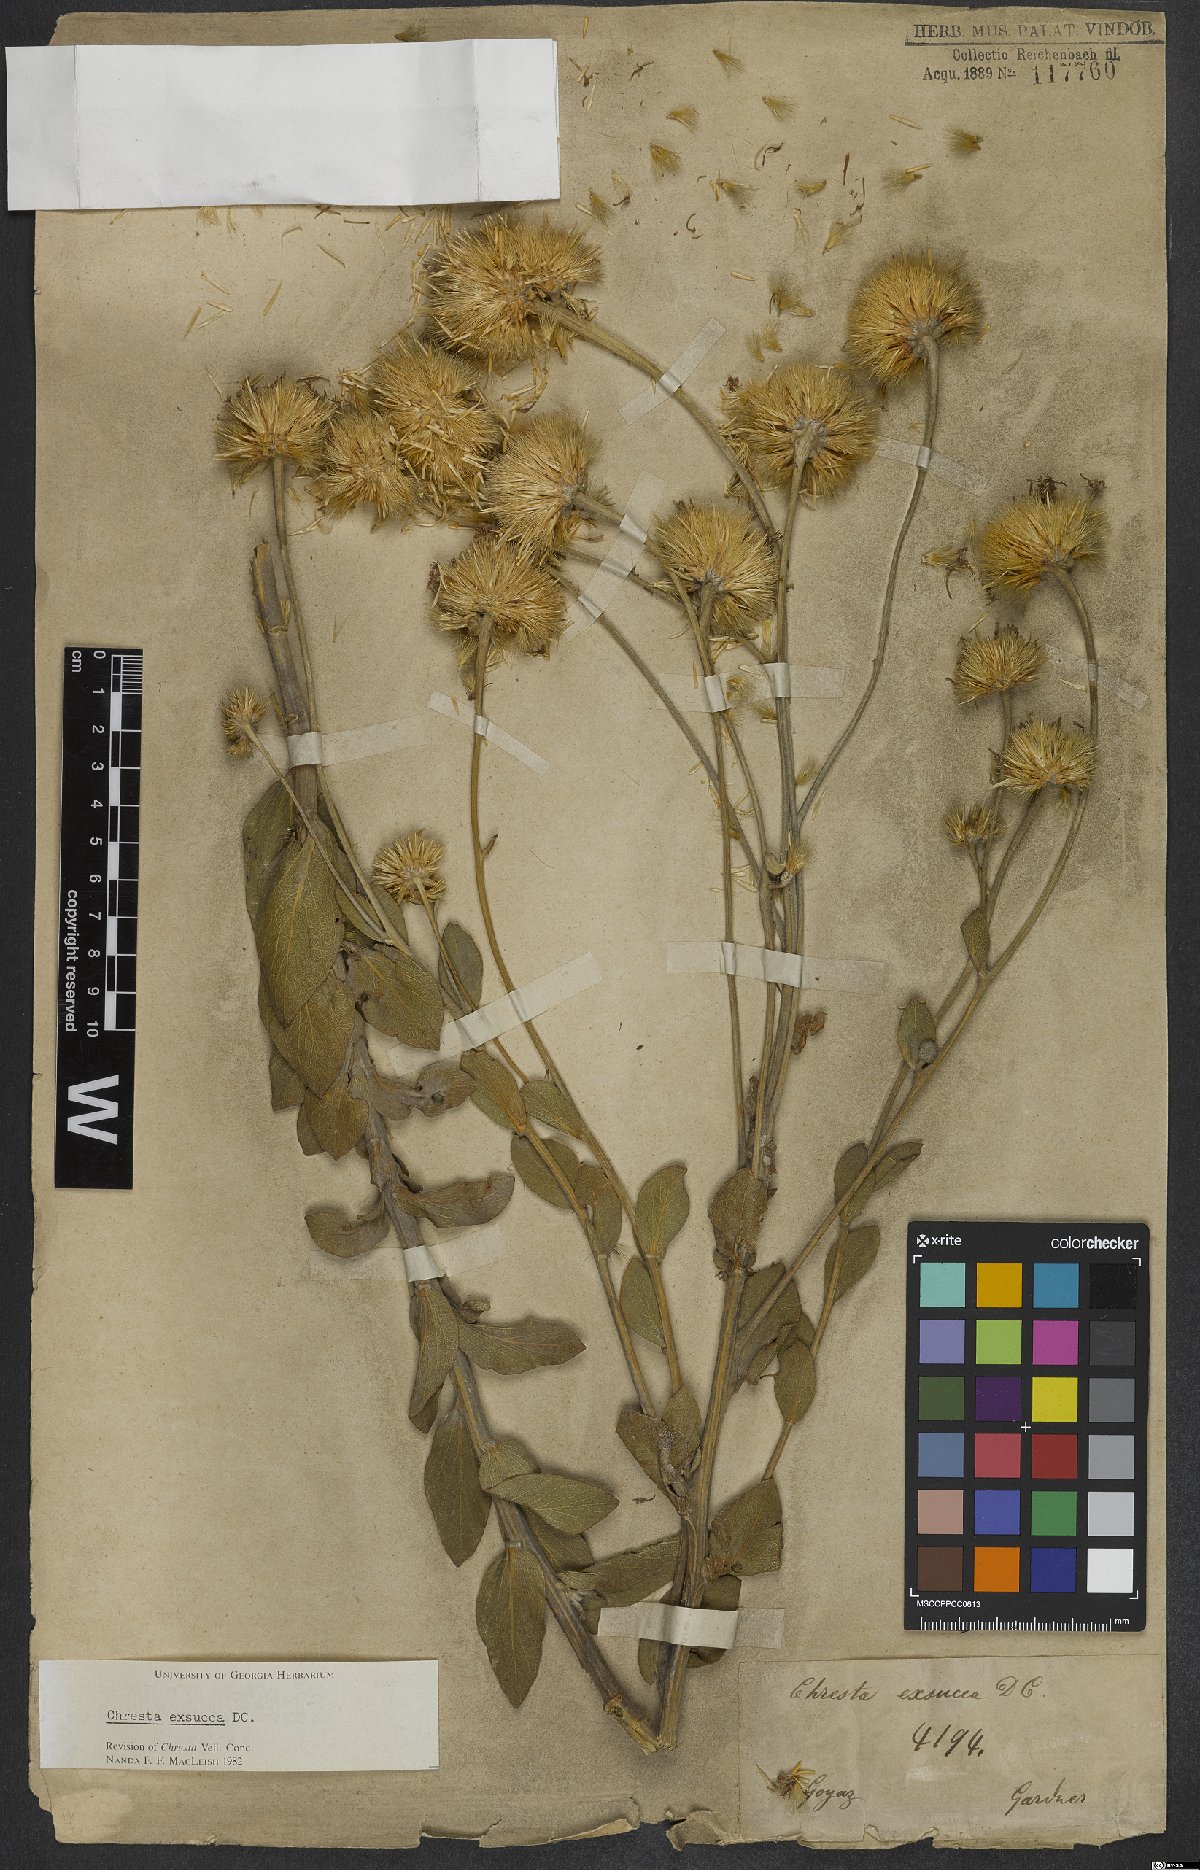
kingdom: Plantae
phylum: Tracheophyta
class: Magnoliopsida
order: Asterales
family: Asteraceae
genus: Chresta
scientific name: Chresta exsucca
